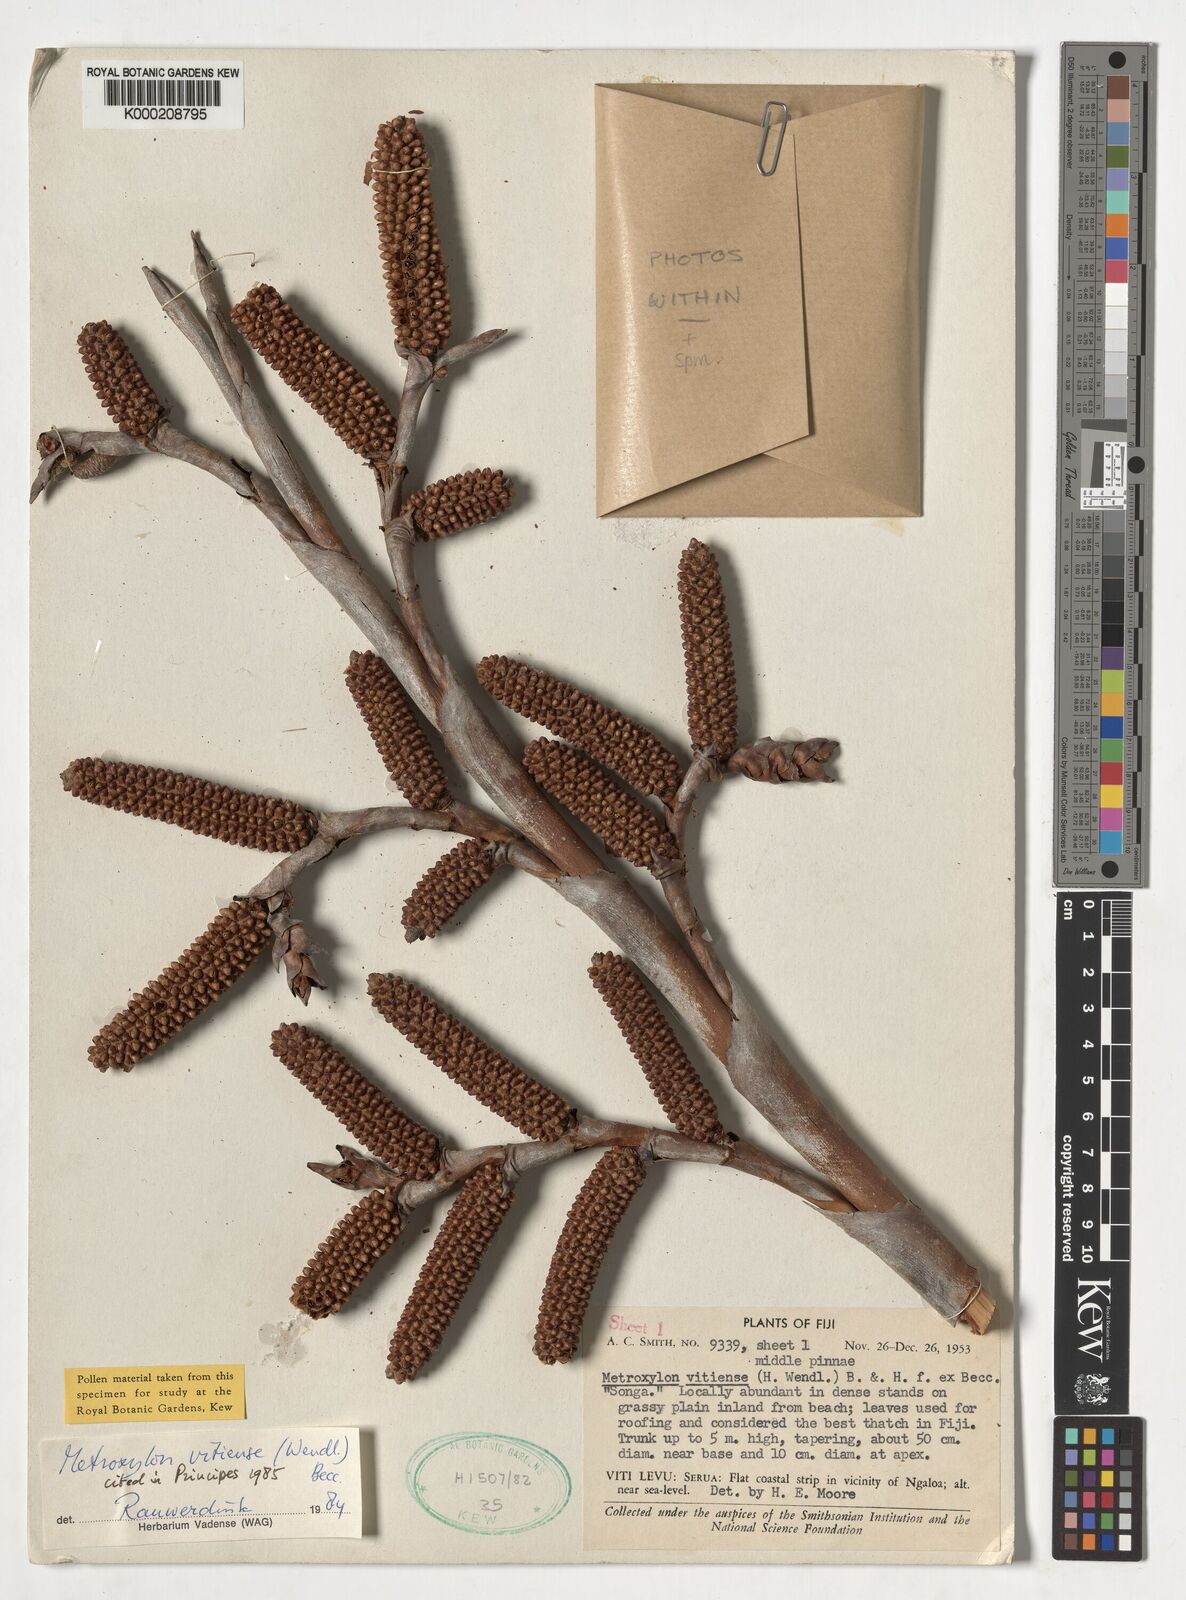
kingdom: Plantae
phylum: Tracheophyta
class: Liliopsida
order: Arecales
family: Arecaceae
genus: Metroxylon
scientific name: Metroxylon
